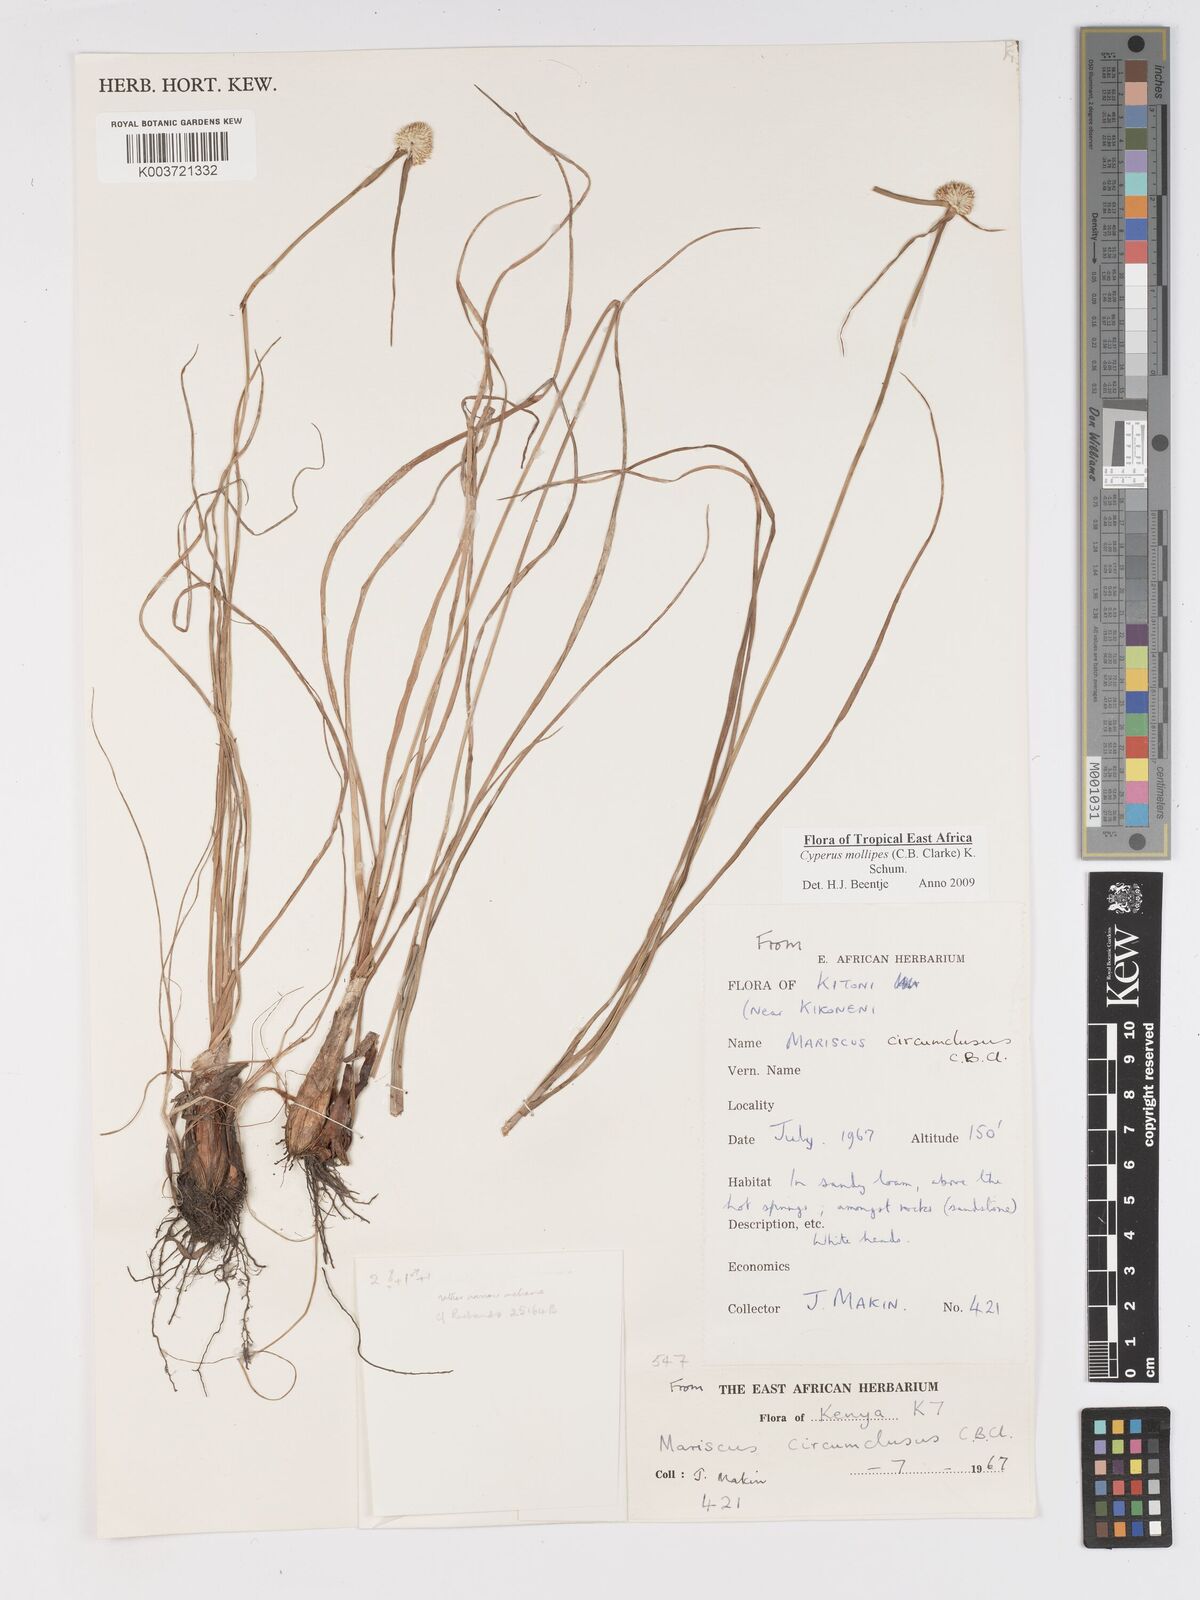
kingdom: Plantae
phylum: Tracheophyta
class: Liliopsida
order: Poales
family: Cyperaceae
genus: Cyperus
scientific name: Cyperus mollipes
